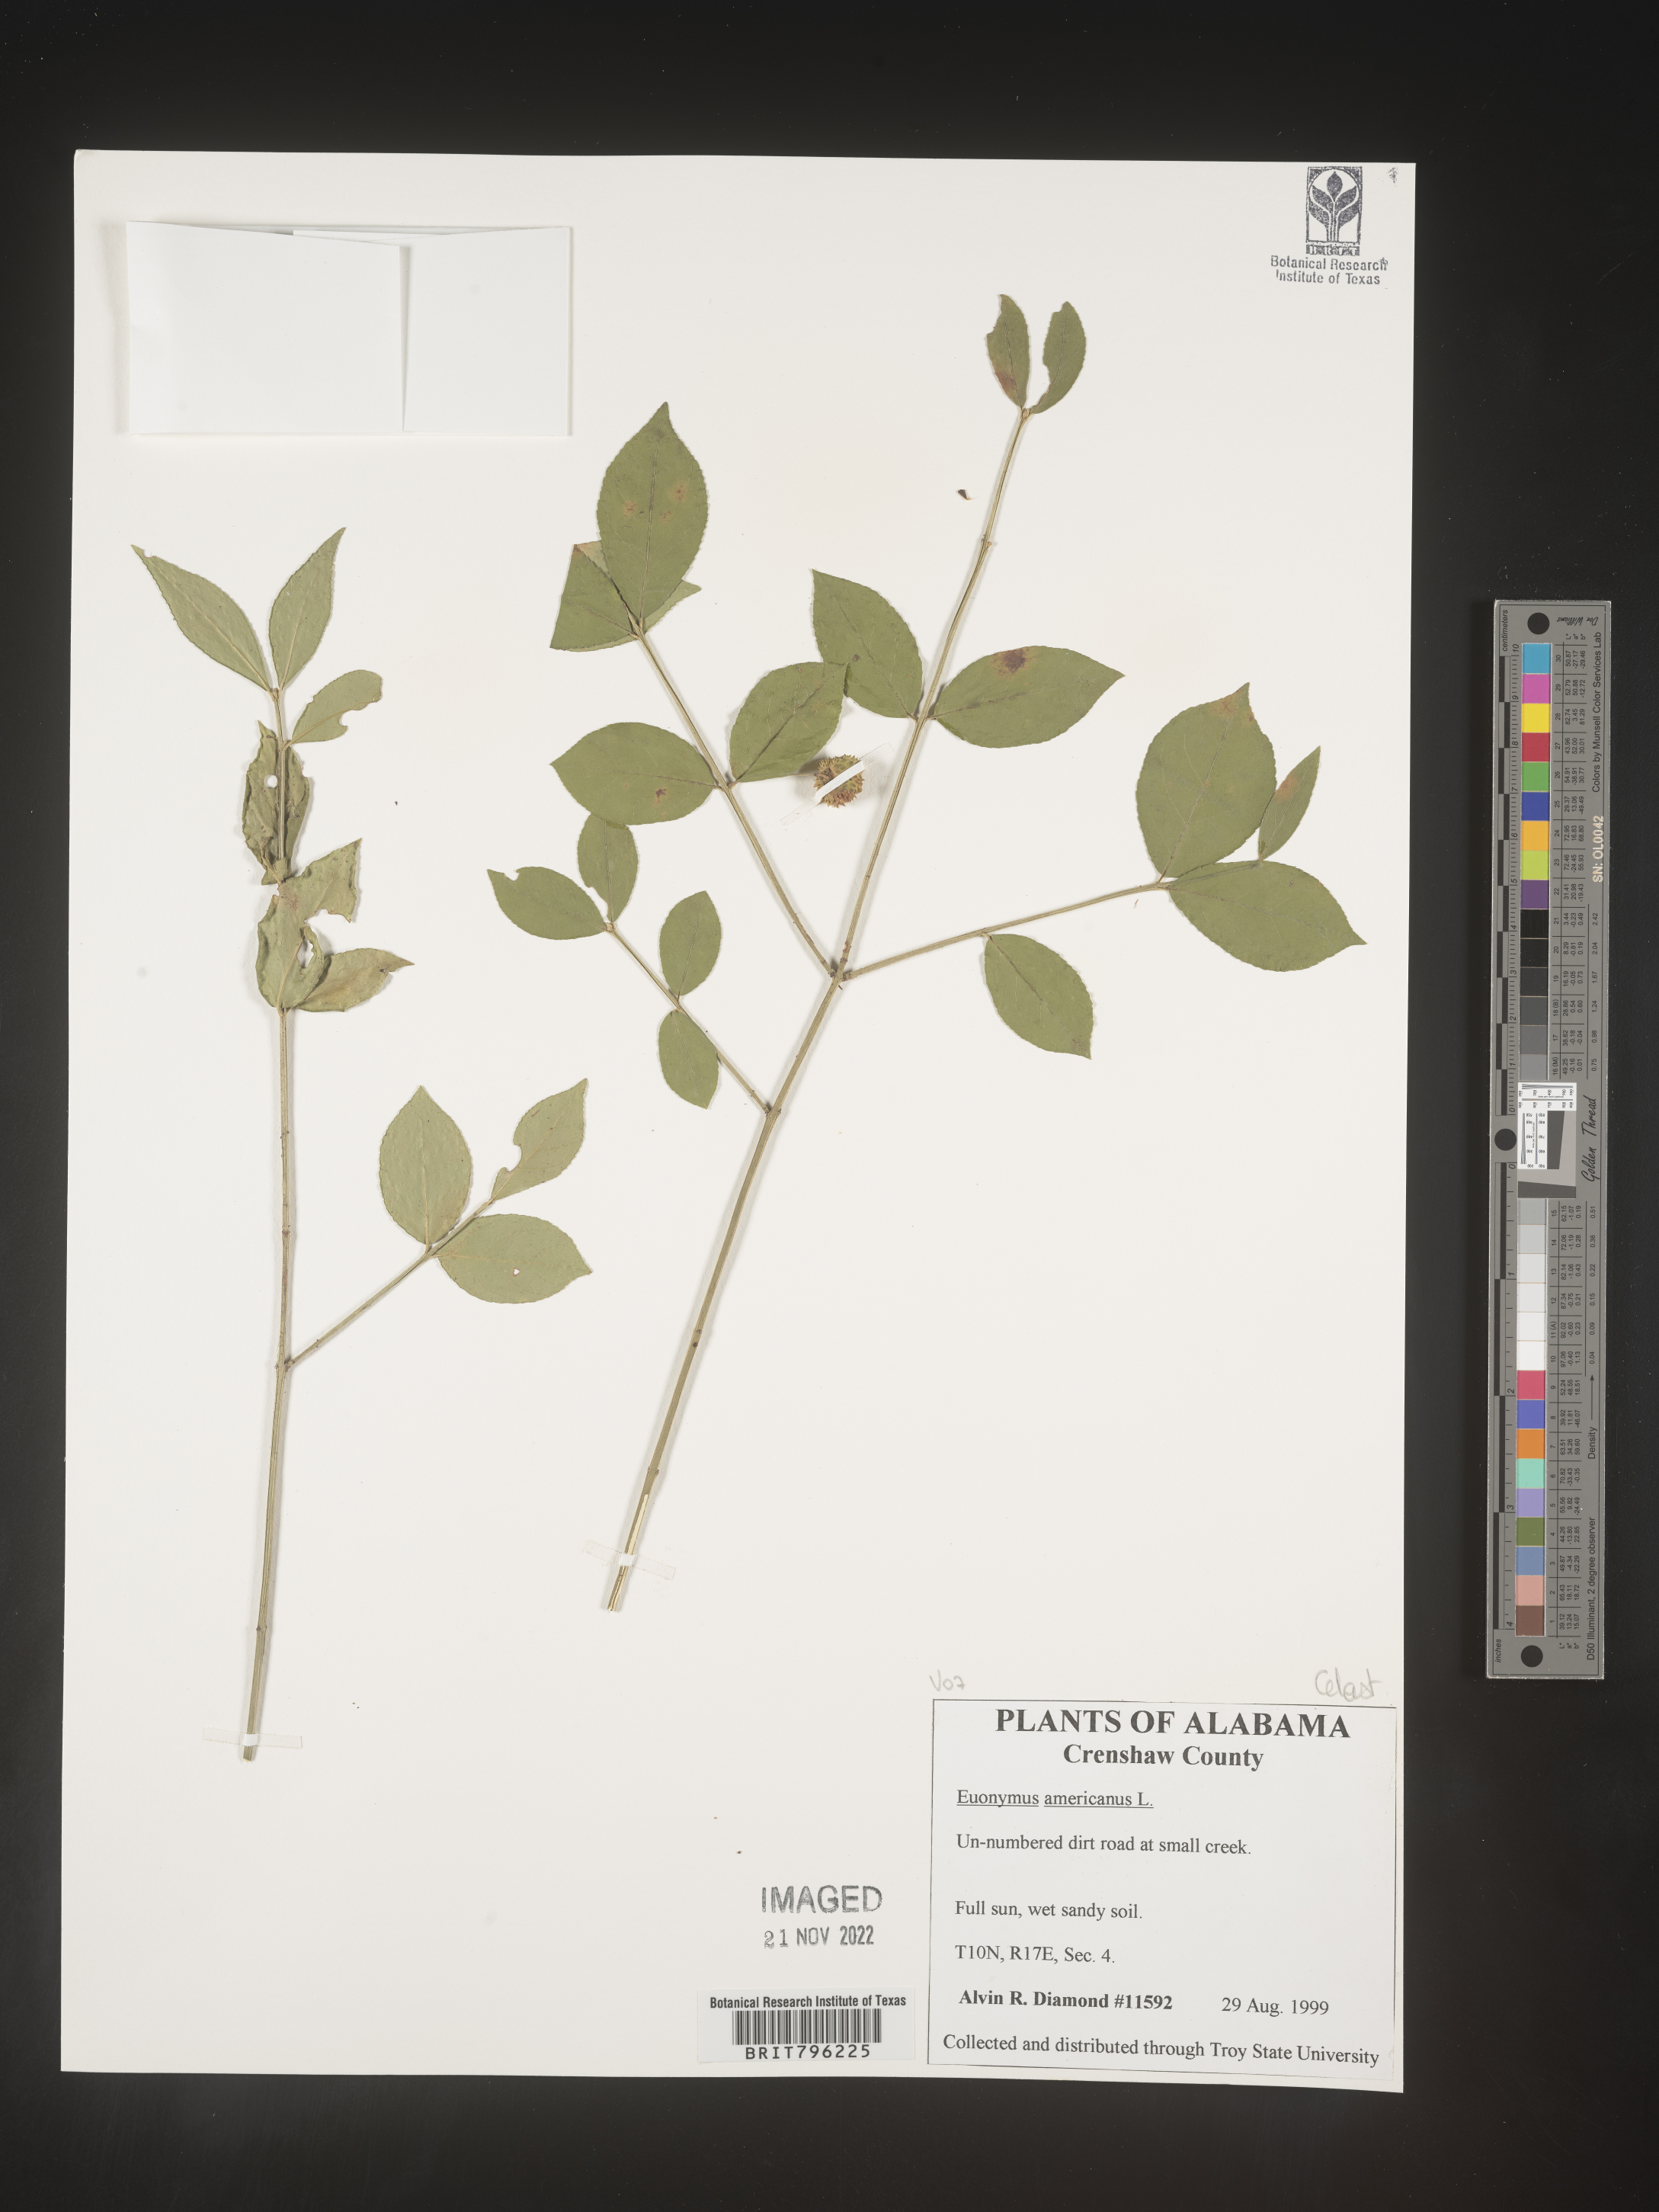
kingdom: Plantae
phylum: Tracheophyta
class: Magnoliopsida
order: Celastrales
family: Celastraceae
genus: Euonymus
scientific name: Euonymus americanus
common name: Bursting-heart
